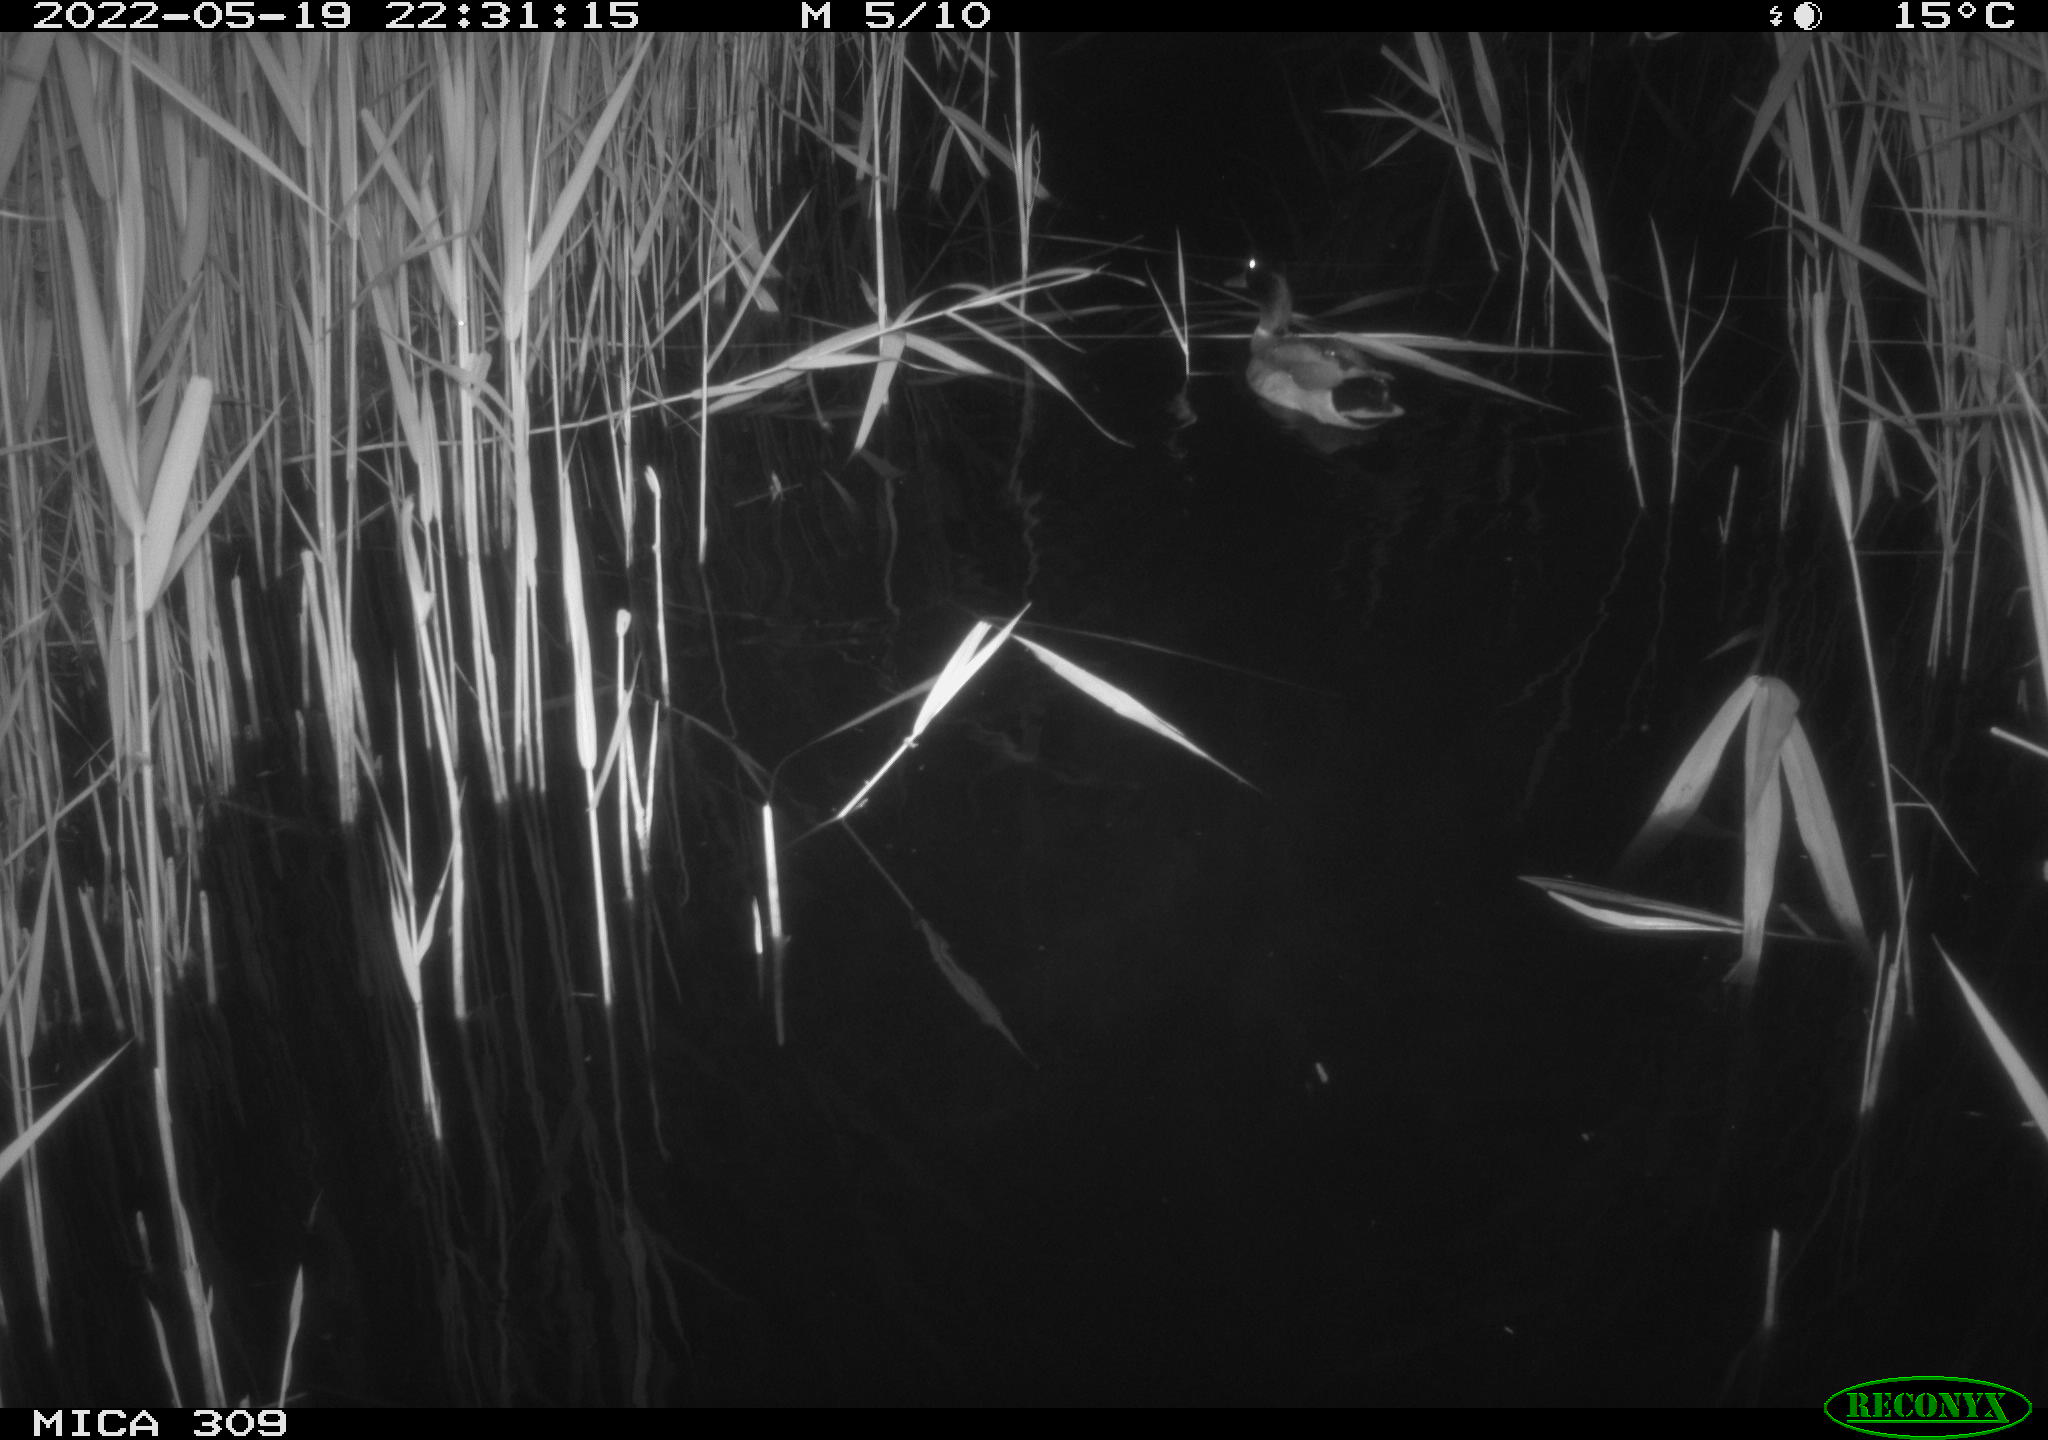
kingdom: Animalia
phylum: Chordata
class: Aves
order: Anseriformes
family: Anatidae
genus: Anas
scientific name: Anas platyrhynchos
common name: Mallard
